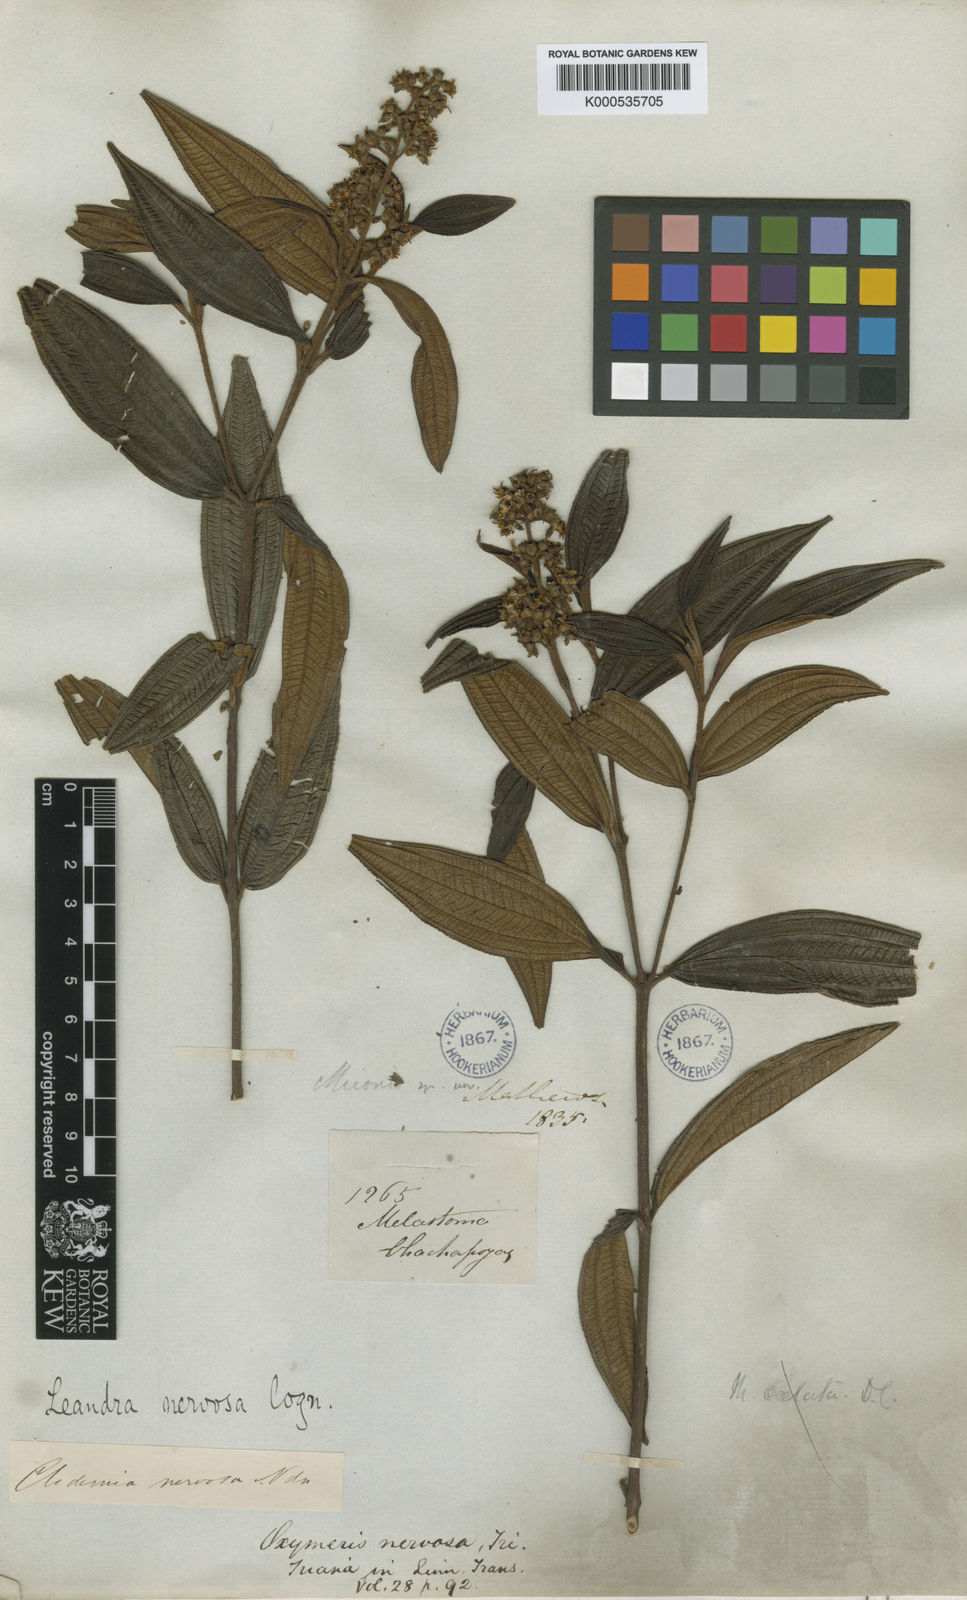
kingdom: Plantae
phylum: Tracheophyta
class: Magnoliopsida
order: Myrtales
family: Melastomataceae
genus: Miconia
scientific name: Miconia nervosissima
